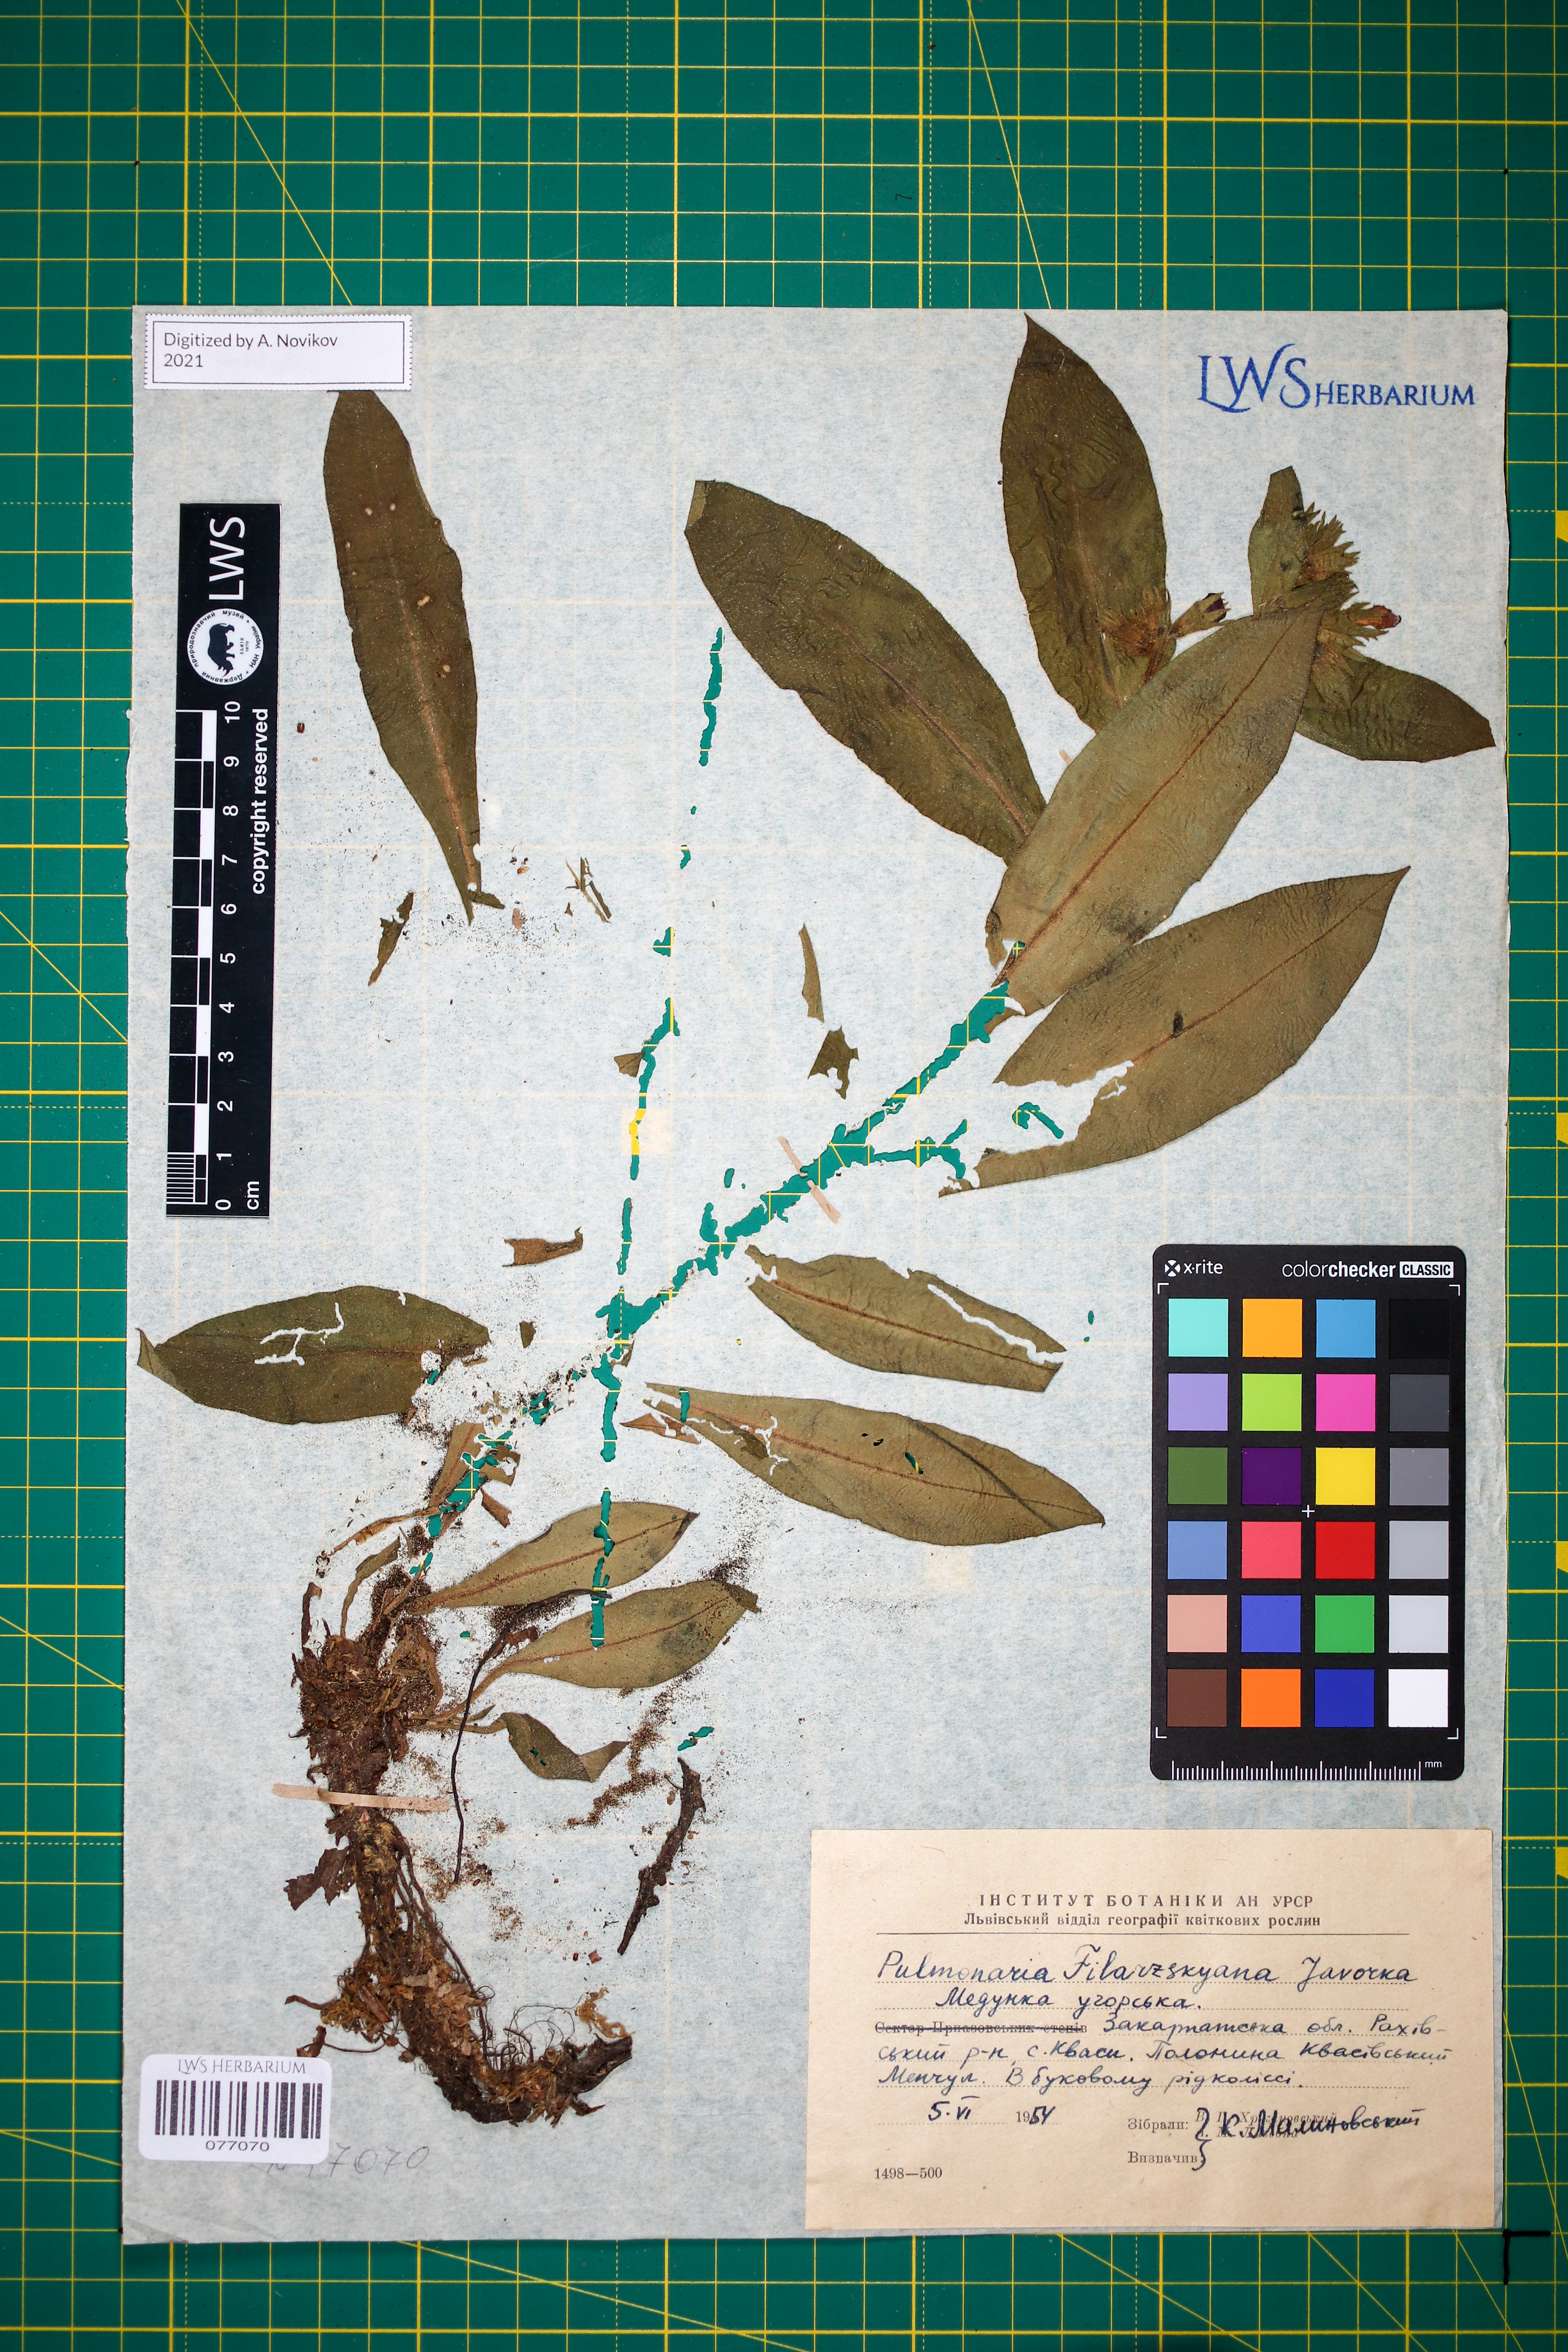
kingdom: Plantae
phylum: Tracheophyta
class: Magnoliopsida
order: Boraginales
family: Boraginaceae
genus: Pulmonaria
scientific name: Pulmonaria filarszkyana
